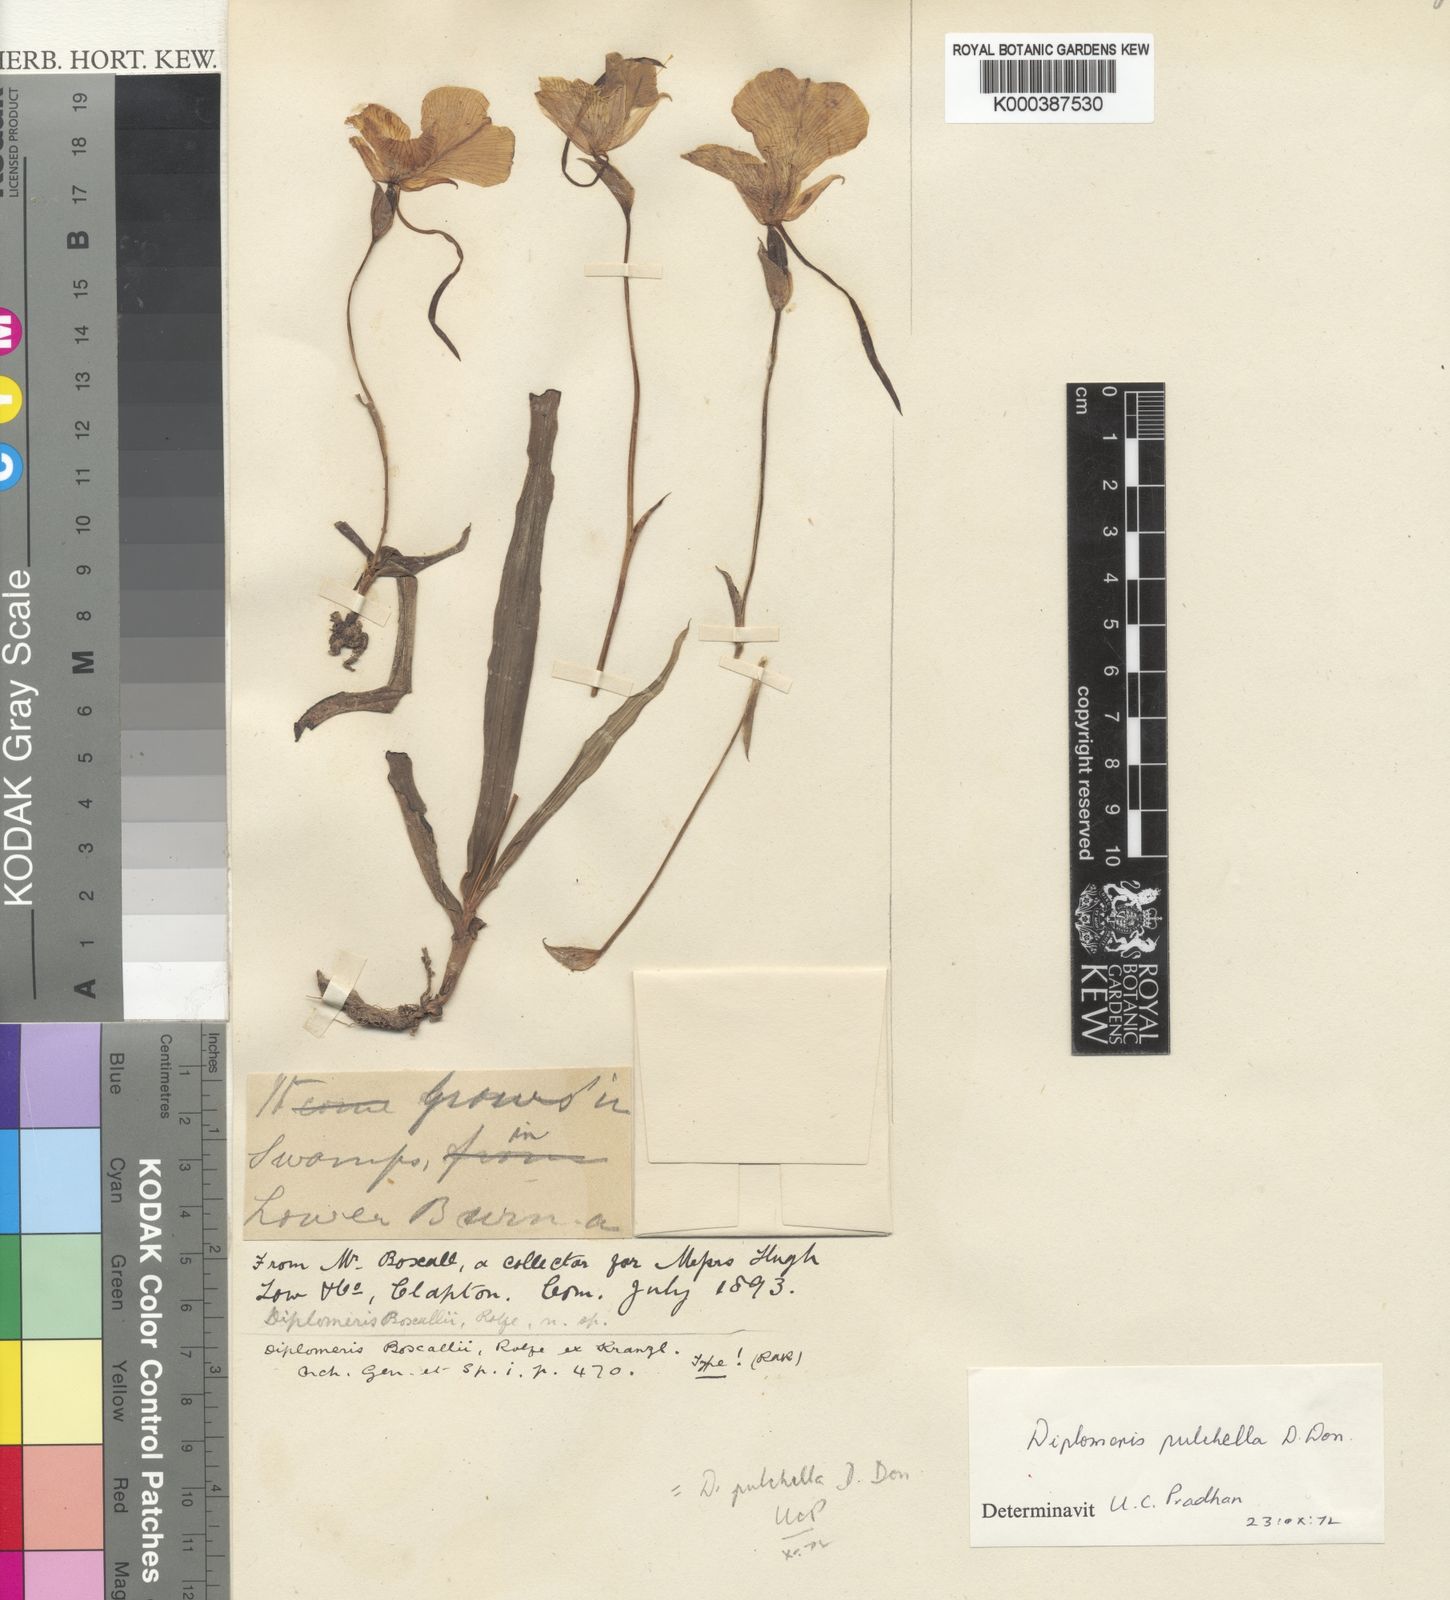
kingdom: Plantae
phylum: Tracheophyta
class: Liliopsida
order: Asparagales
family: Orchidaceae
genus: Diplomeris
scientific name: Diplomeris pulchella
